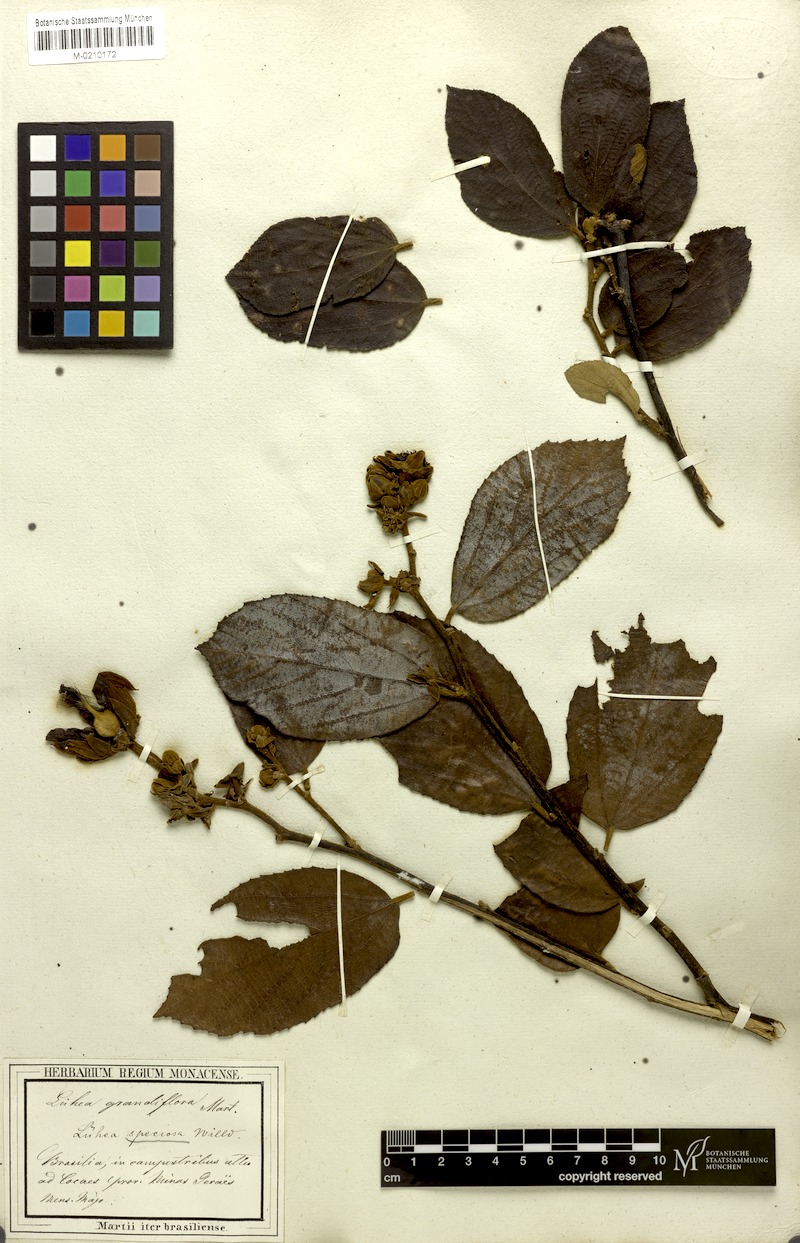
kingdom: Plantae
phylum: Tracheophyta
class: Magnoliopsida
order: Malvales
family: Malvaceae
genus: Luehea
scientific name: Luehea grandiflora
